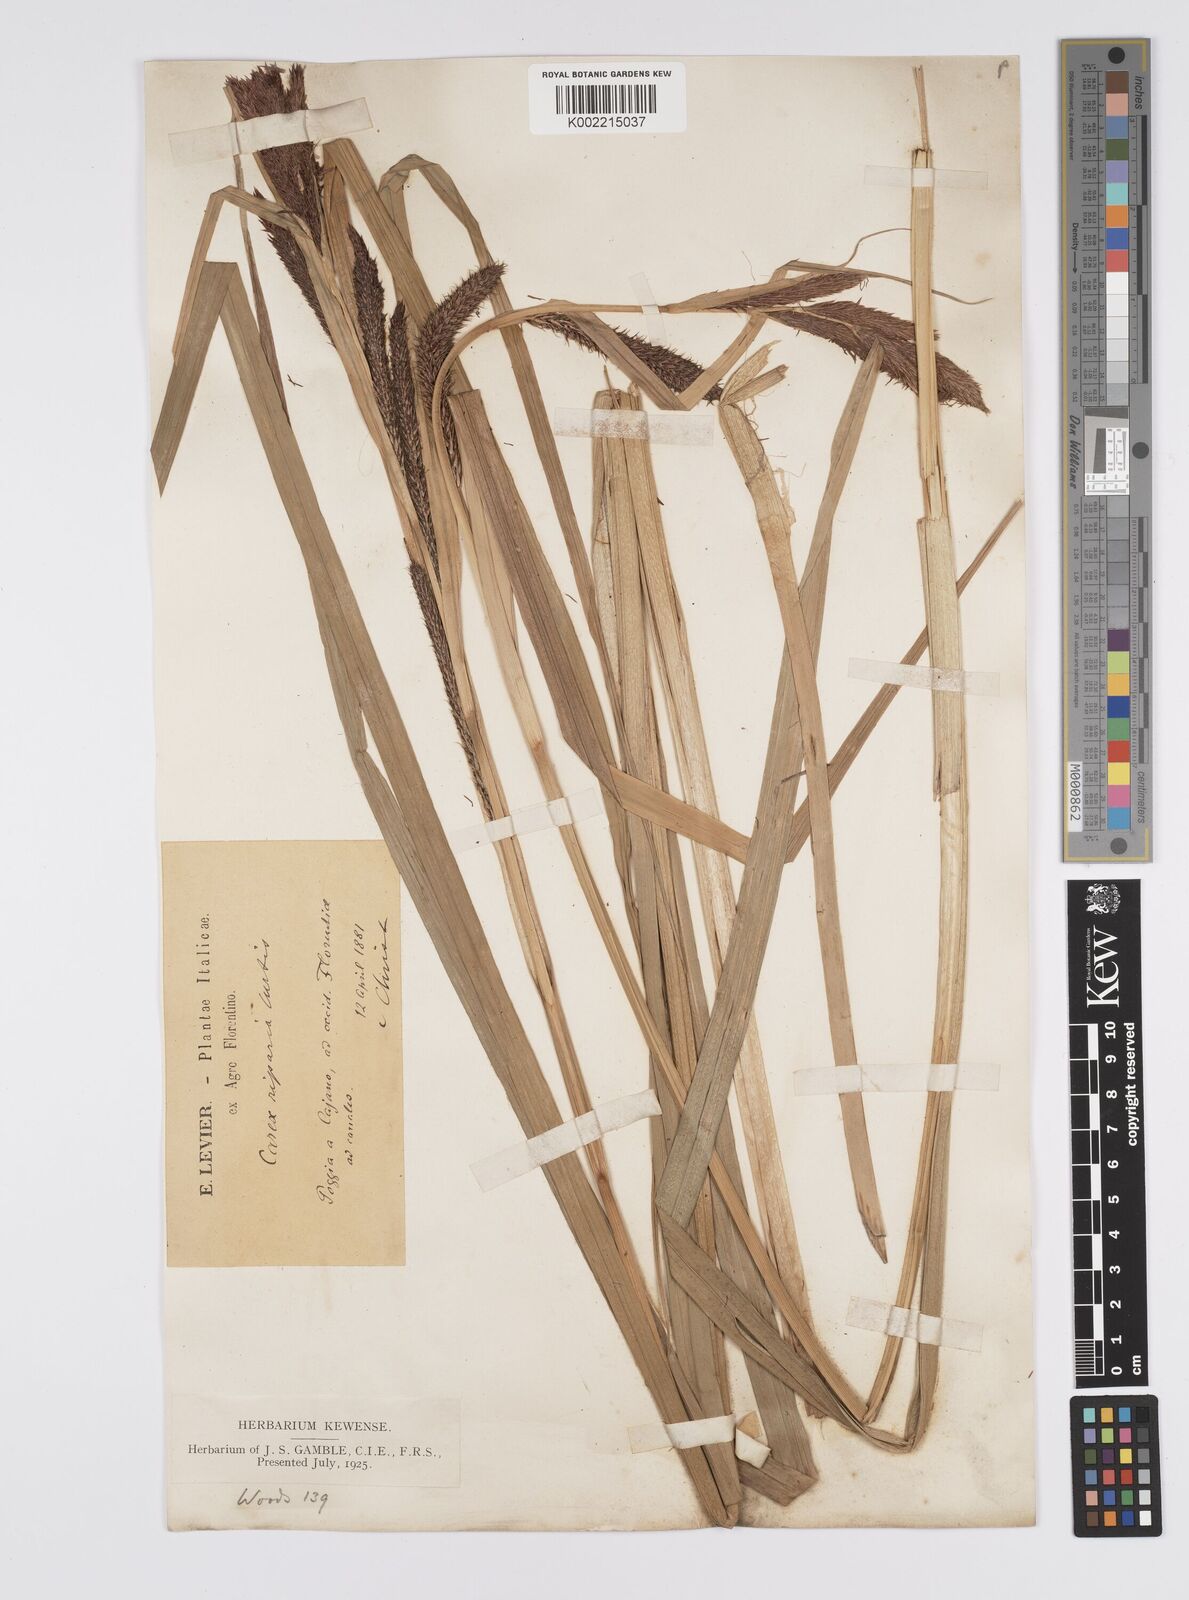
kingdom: Plantae
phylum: Tracheophyta
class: Liliopsida
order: Poales
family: Cyperaceae
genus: Carex
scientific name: Carex riparia
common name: Greater pond-sedge
